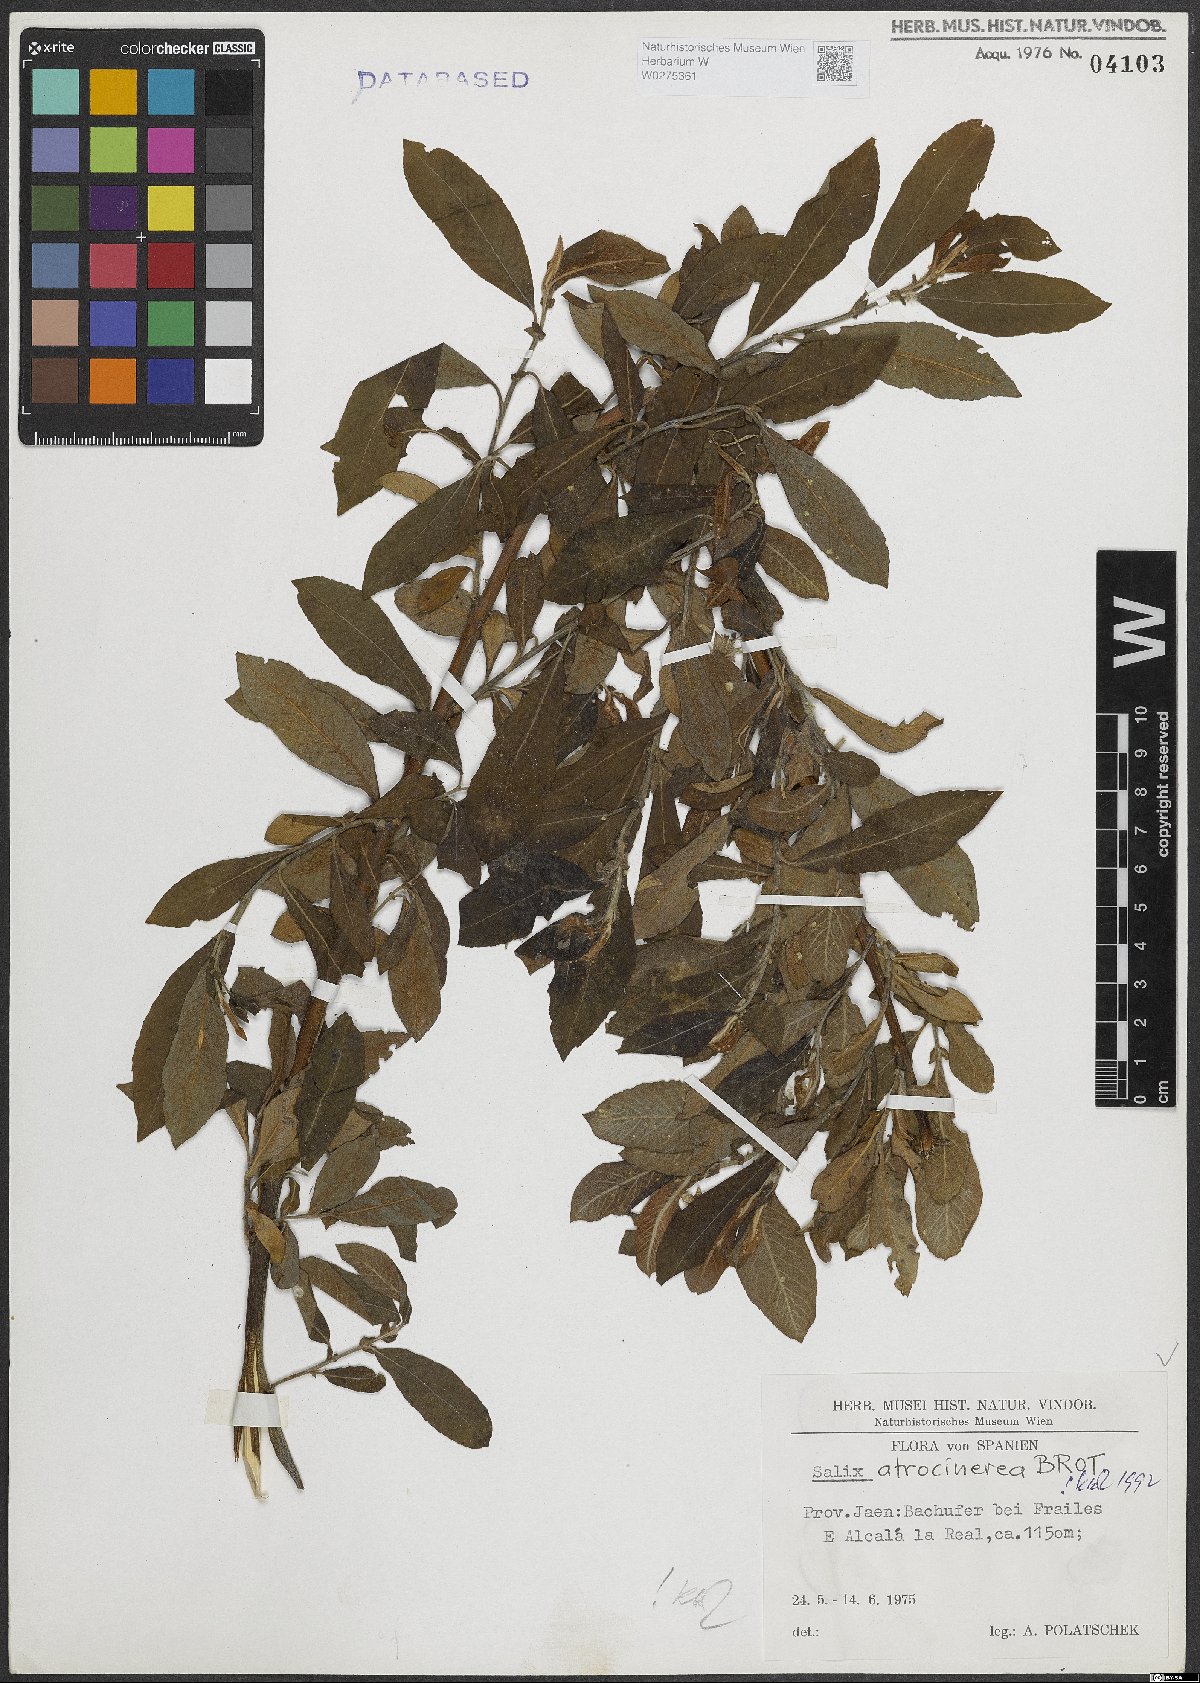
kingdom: Plantae
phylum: Tracheophyta
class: Magnoliopsida
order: Malpighiales
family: Salicaceae
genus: Salix
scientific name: Salix atrocinerea
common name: Rusty willow
